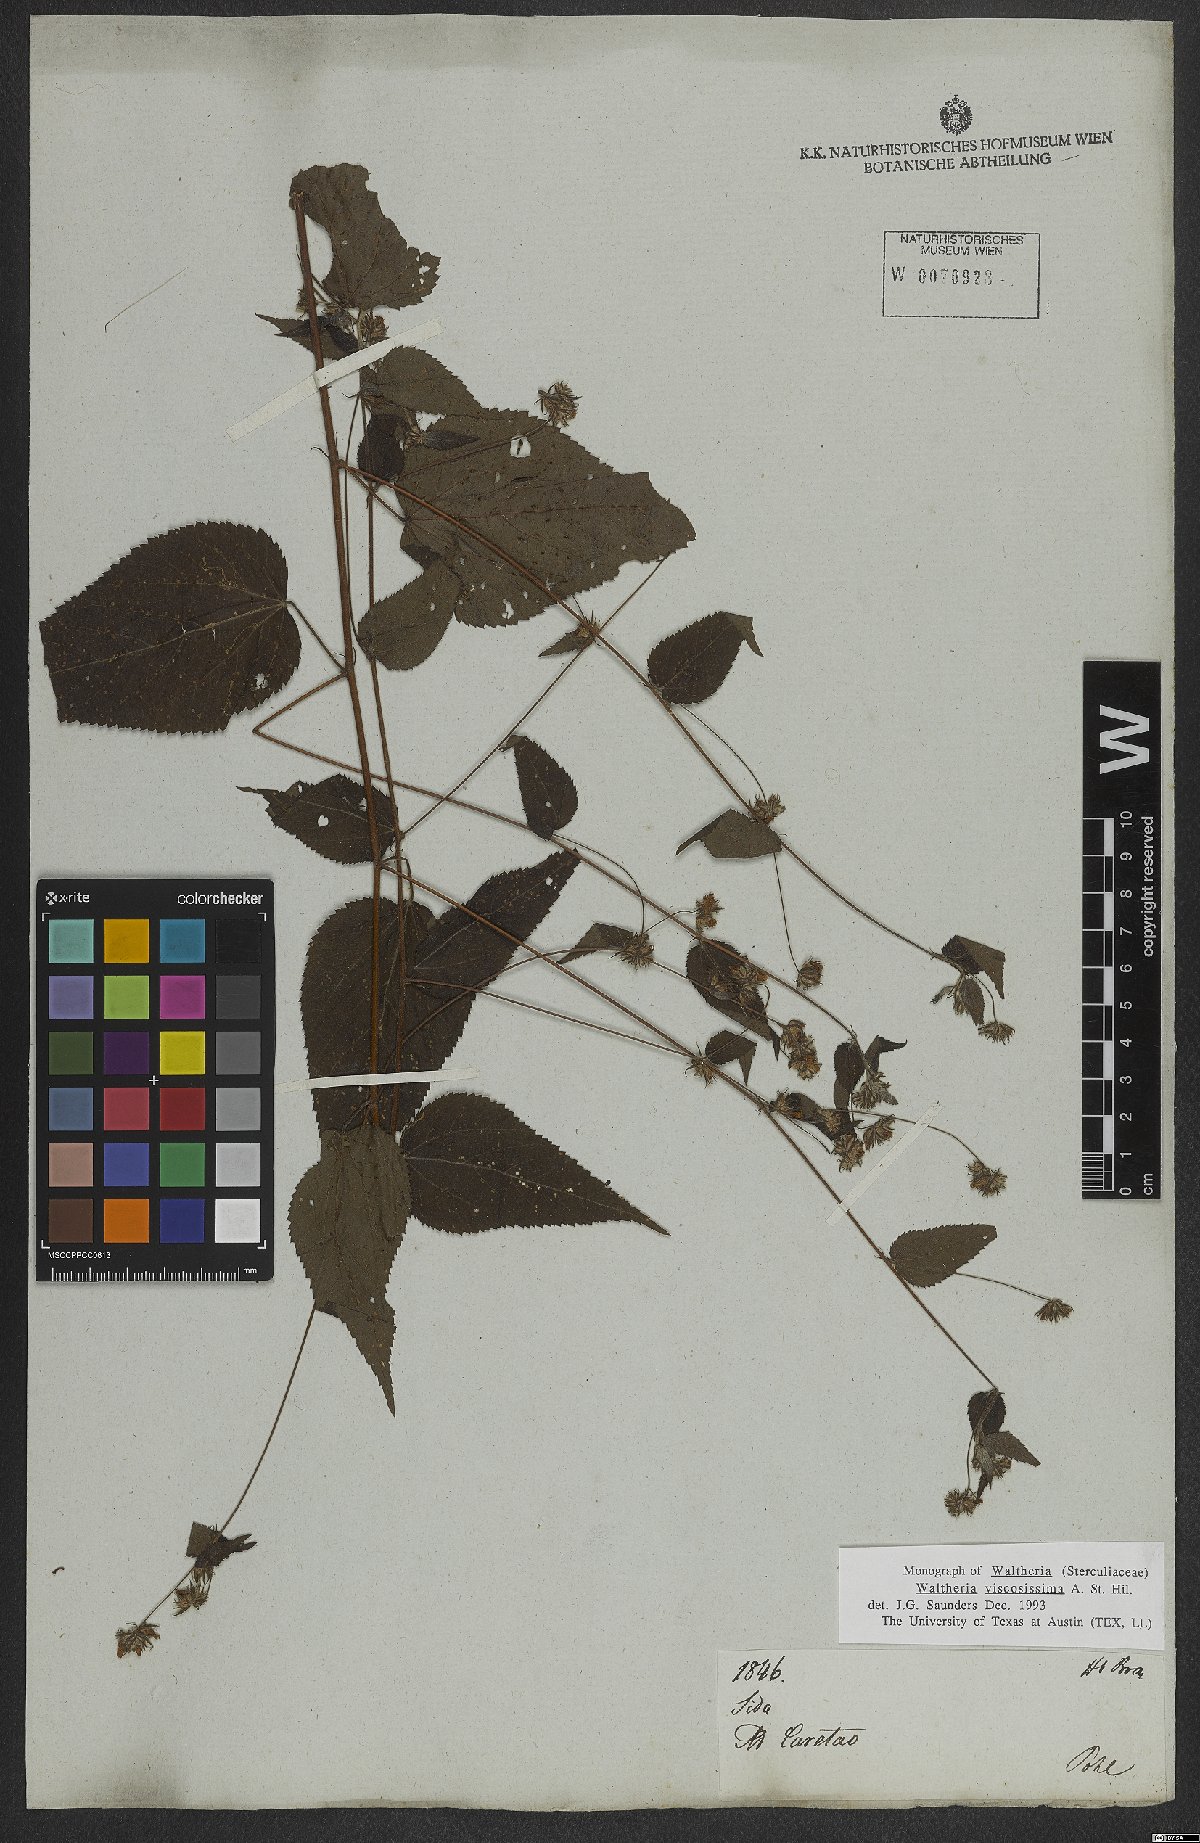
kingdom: Plantae
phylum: Tracheophyta
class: Magnoliopsida
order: Malvales
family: Malvaceae
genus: Waltheria
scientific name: Waltheria viscosissima
